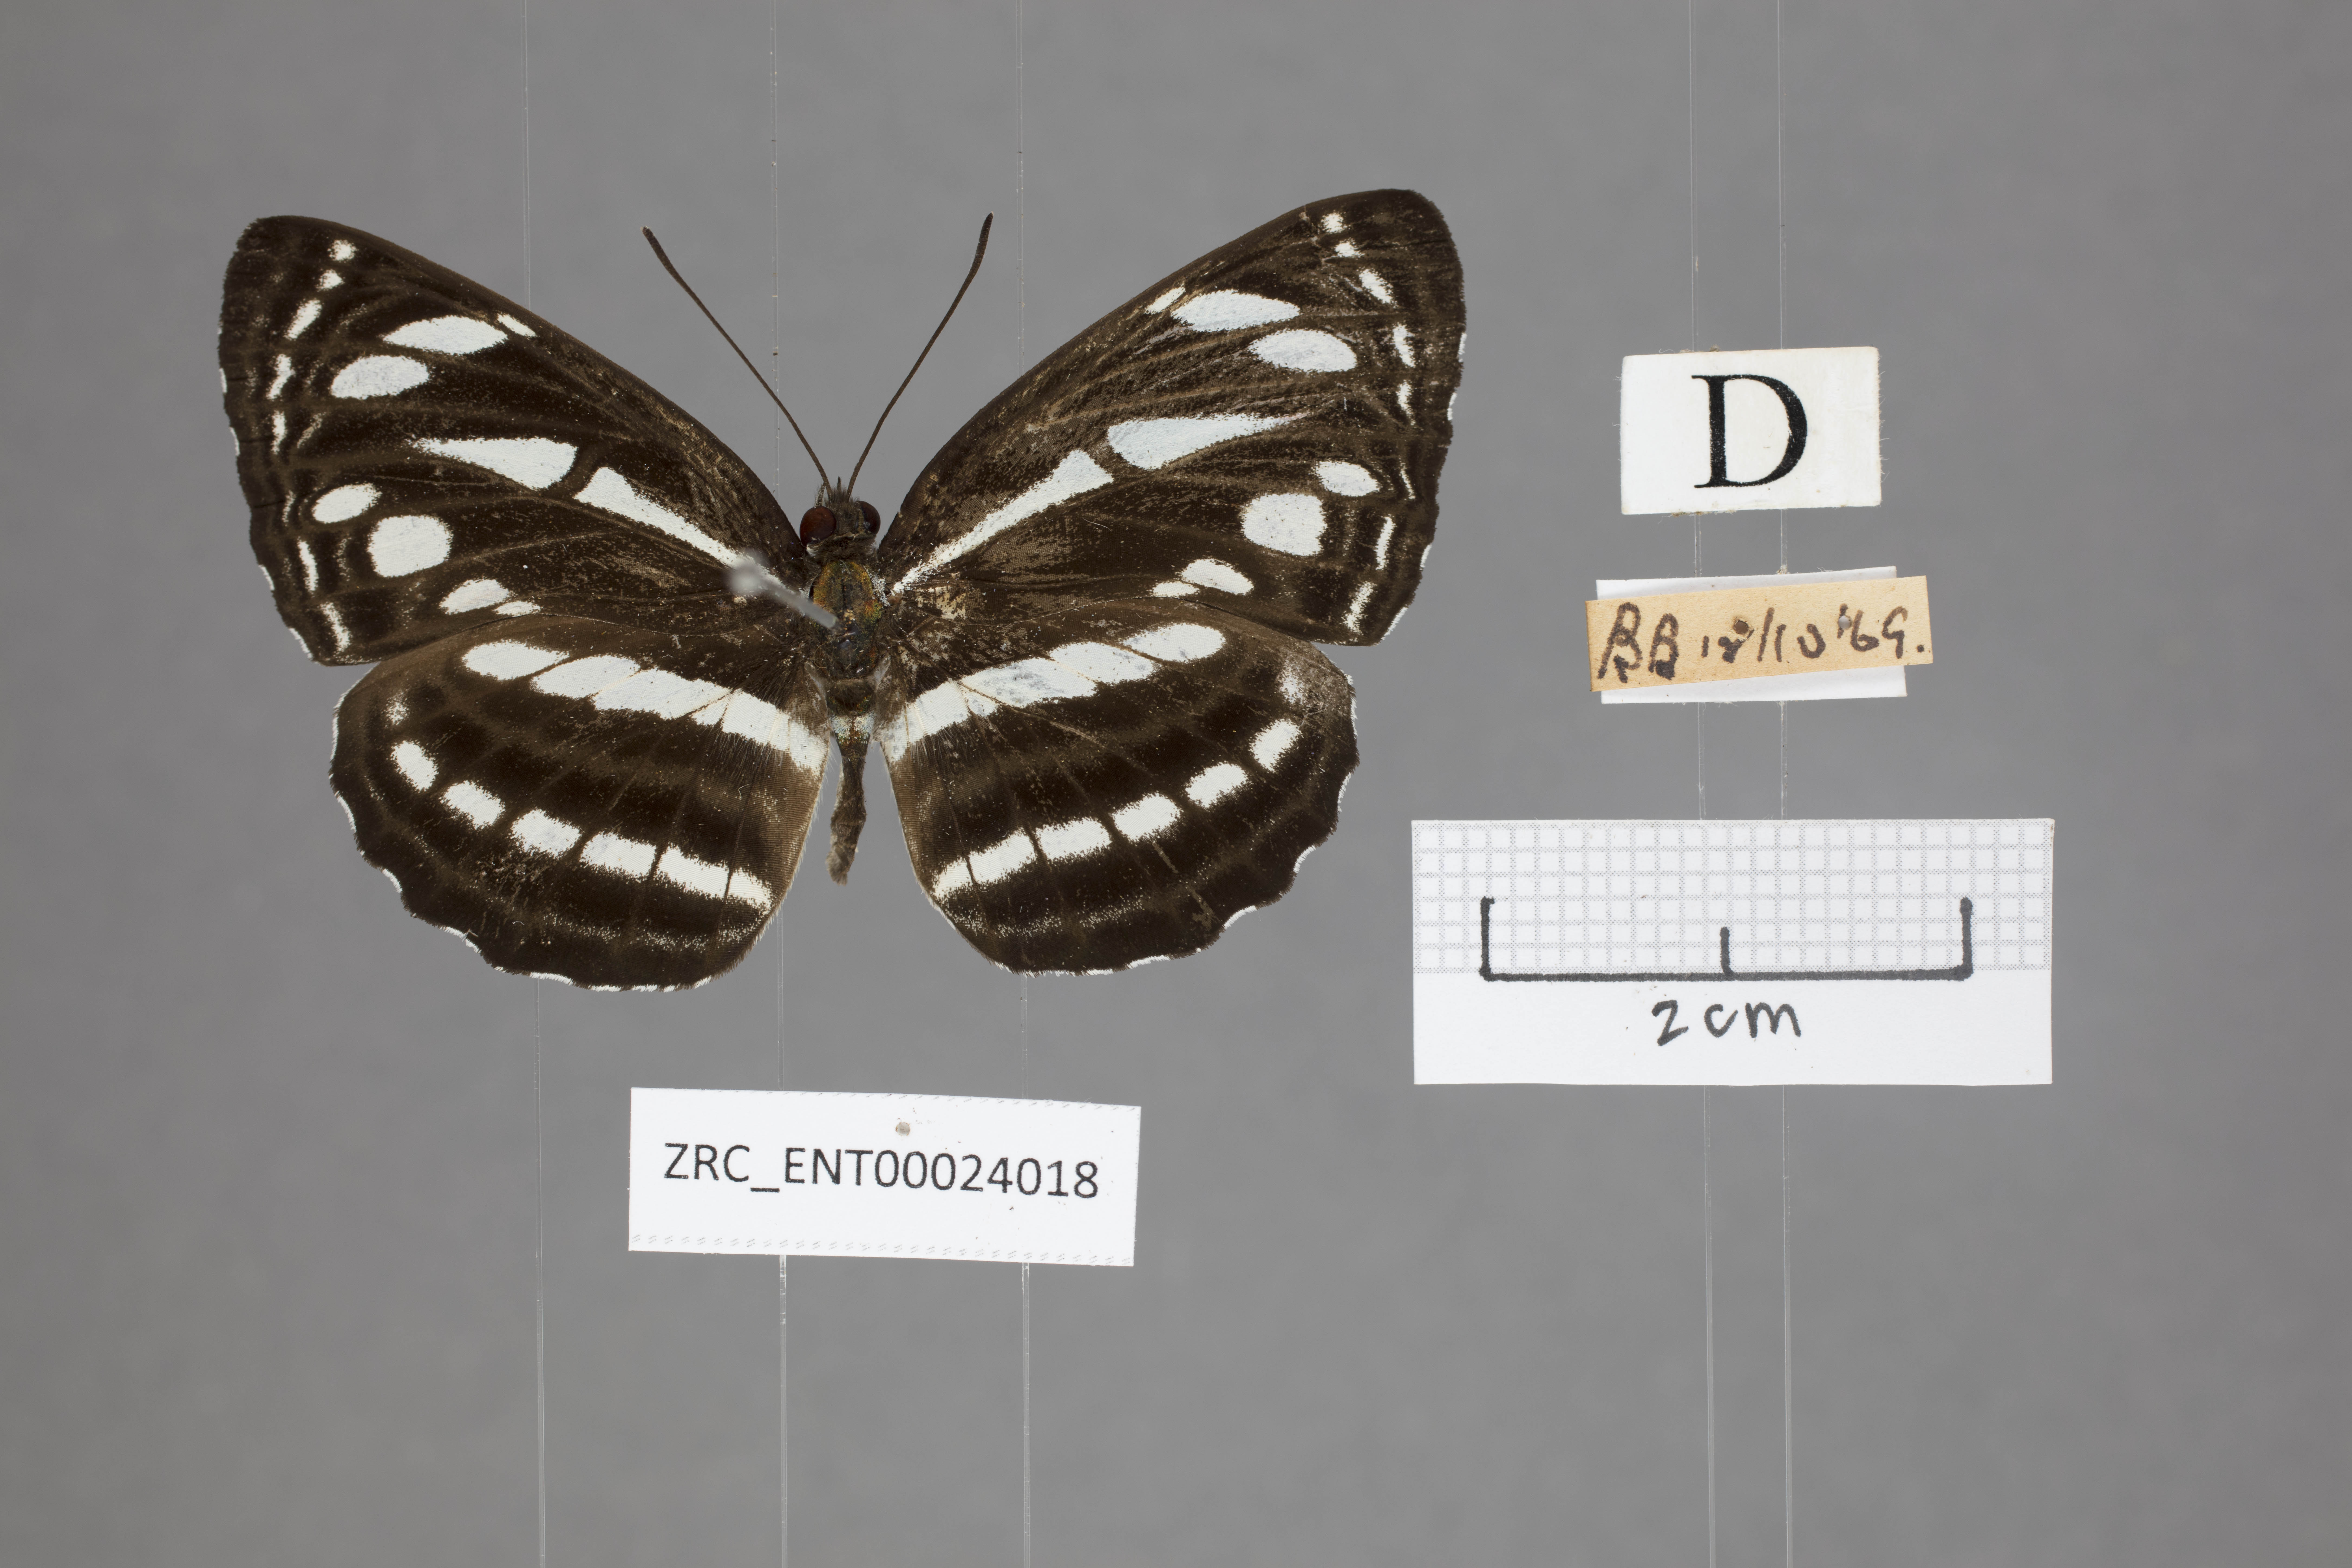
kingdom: Animalia
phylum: Arthropoda
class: Insecta
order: Lepidoptera
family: Nymphalidae
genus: Neptis
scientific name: Neptis leucoporus
